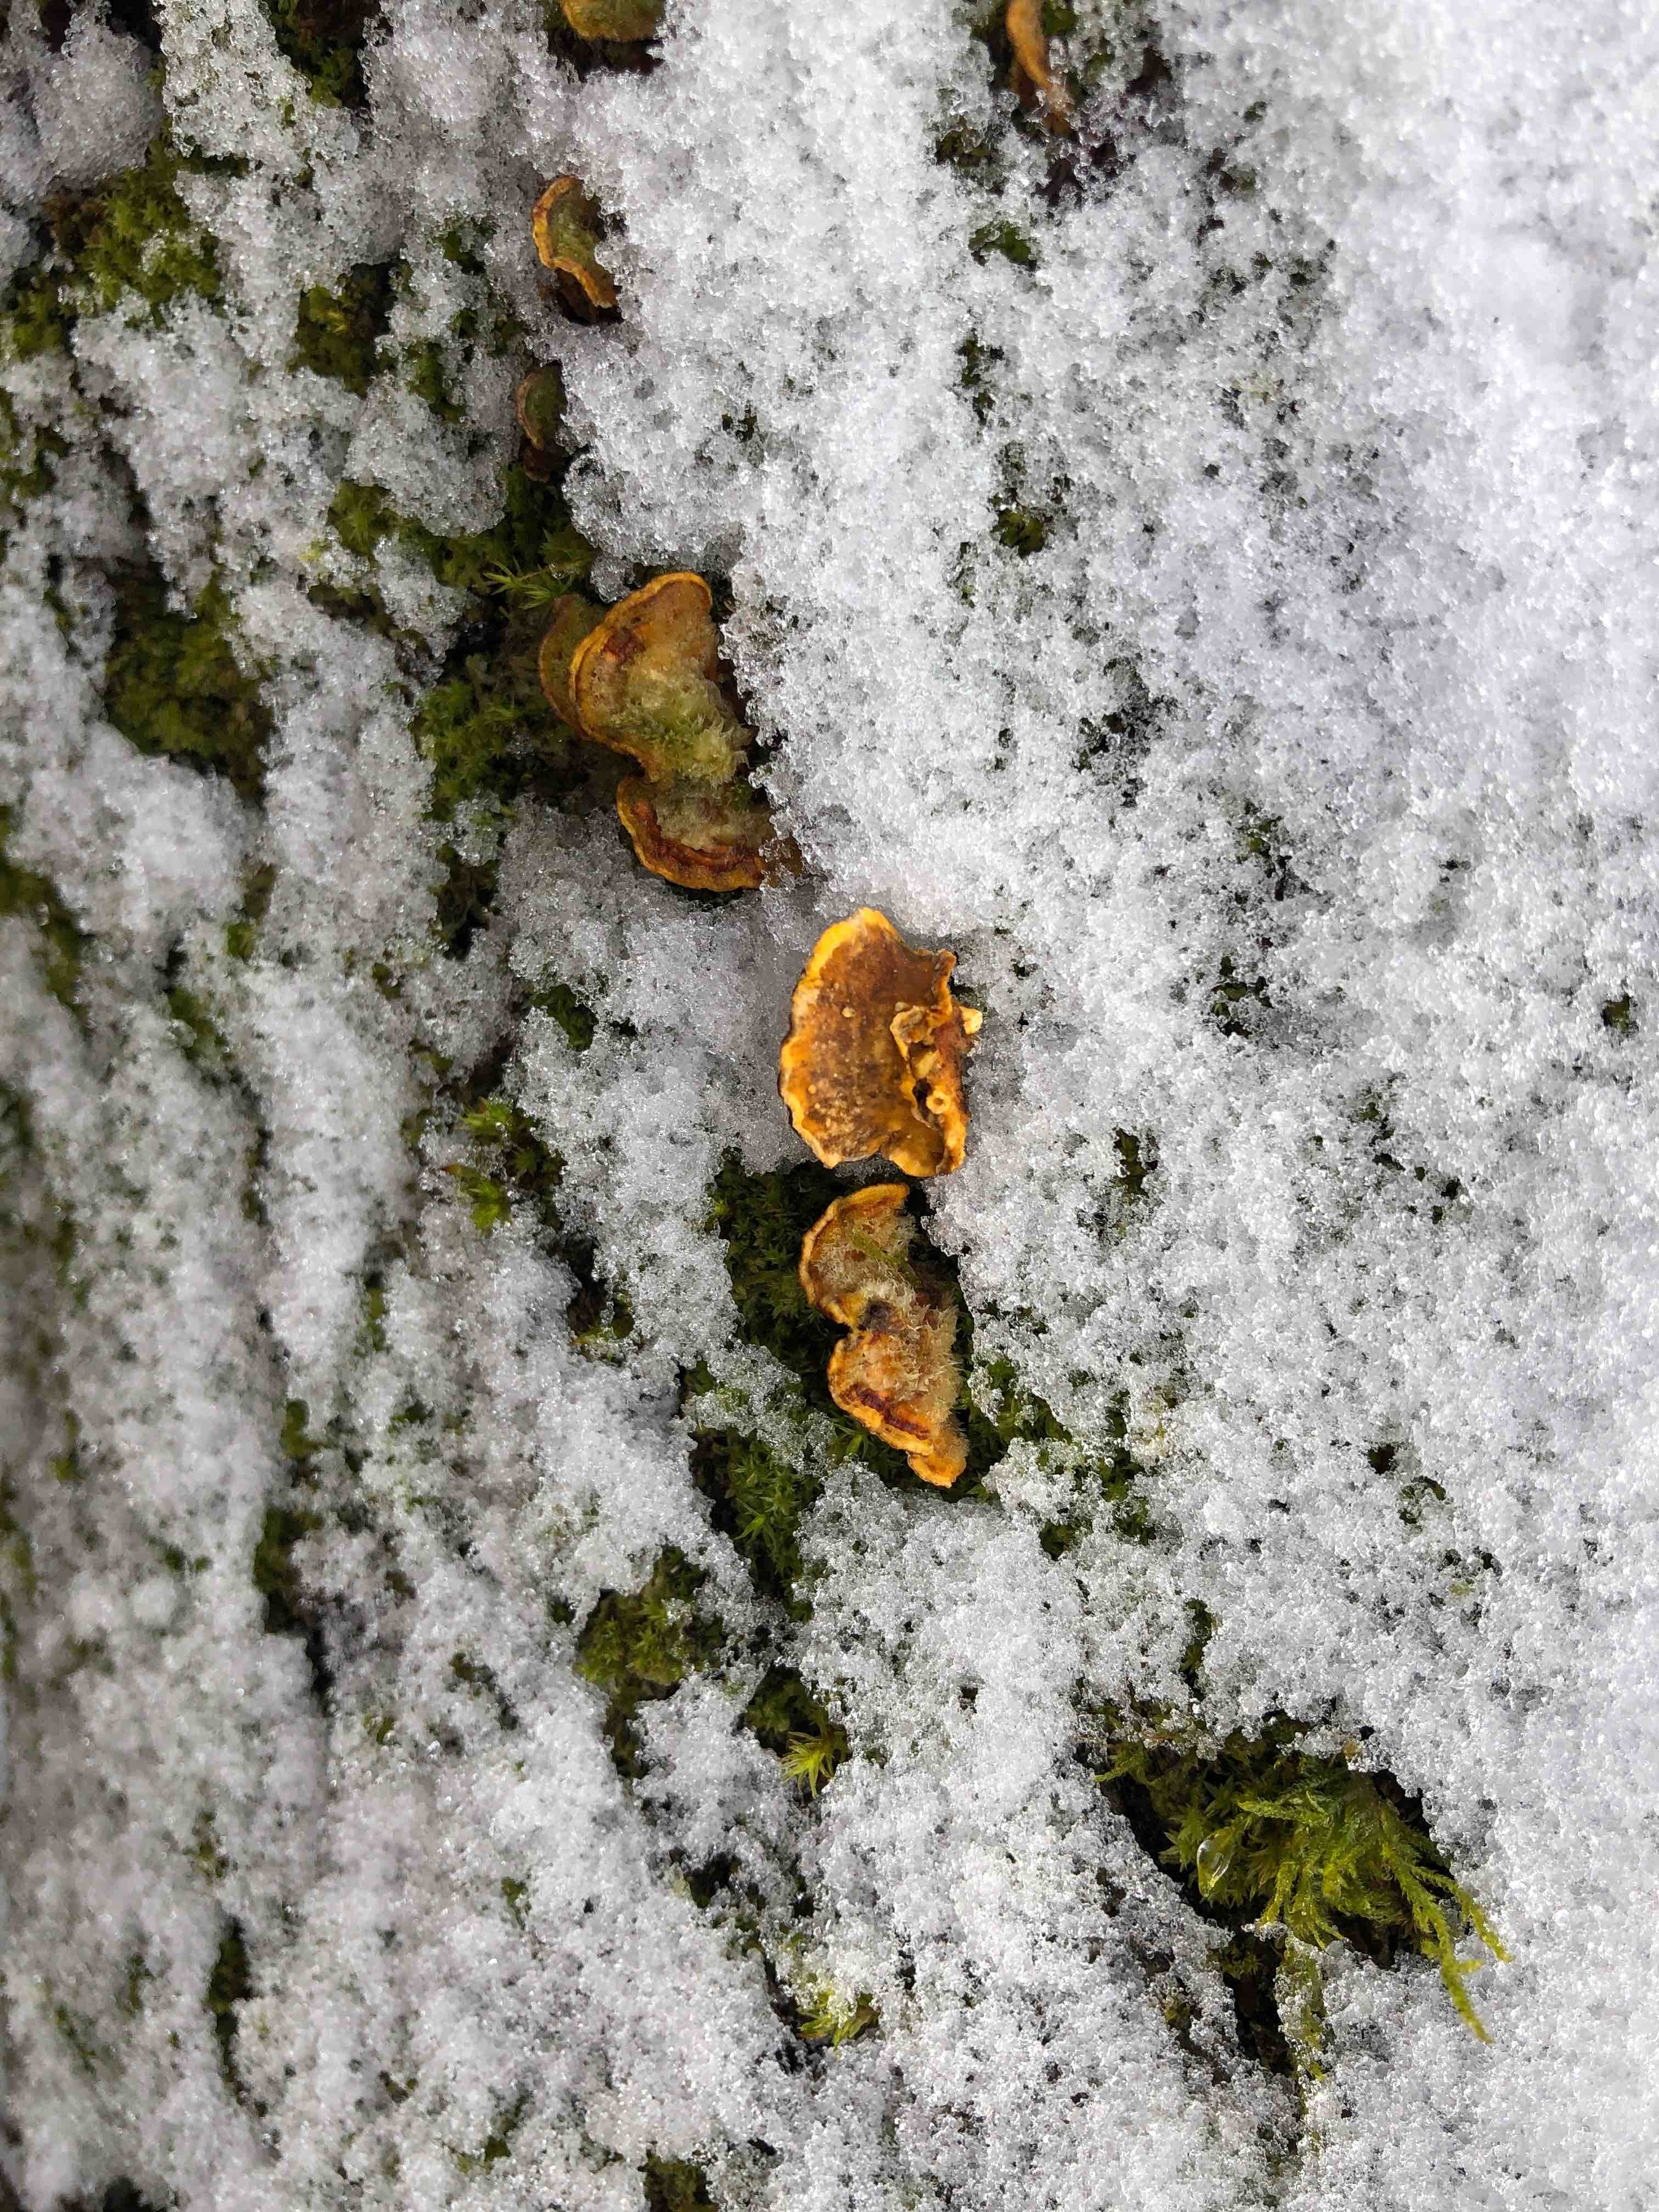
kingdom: Fungi
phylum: Basidiomycota
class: Agaricomycetes
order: Russulales
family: Stereaceae
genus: Stereum
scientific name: Stereum hirsutum
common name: håret lædersvamp
